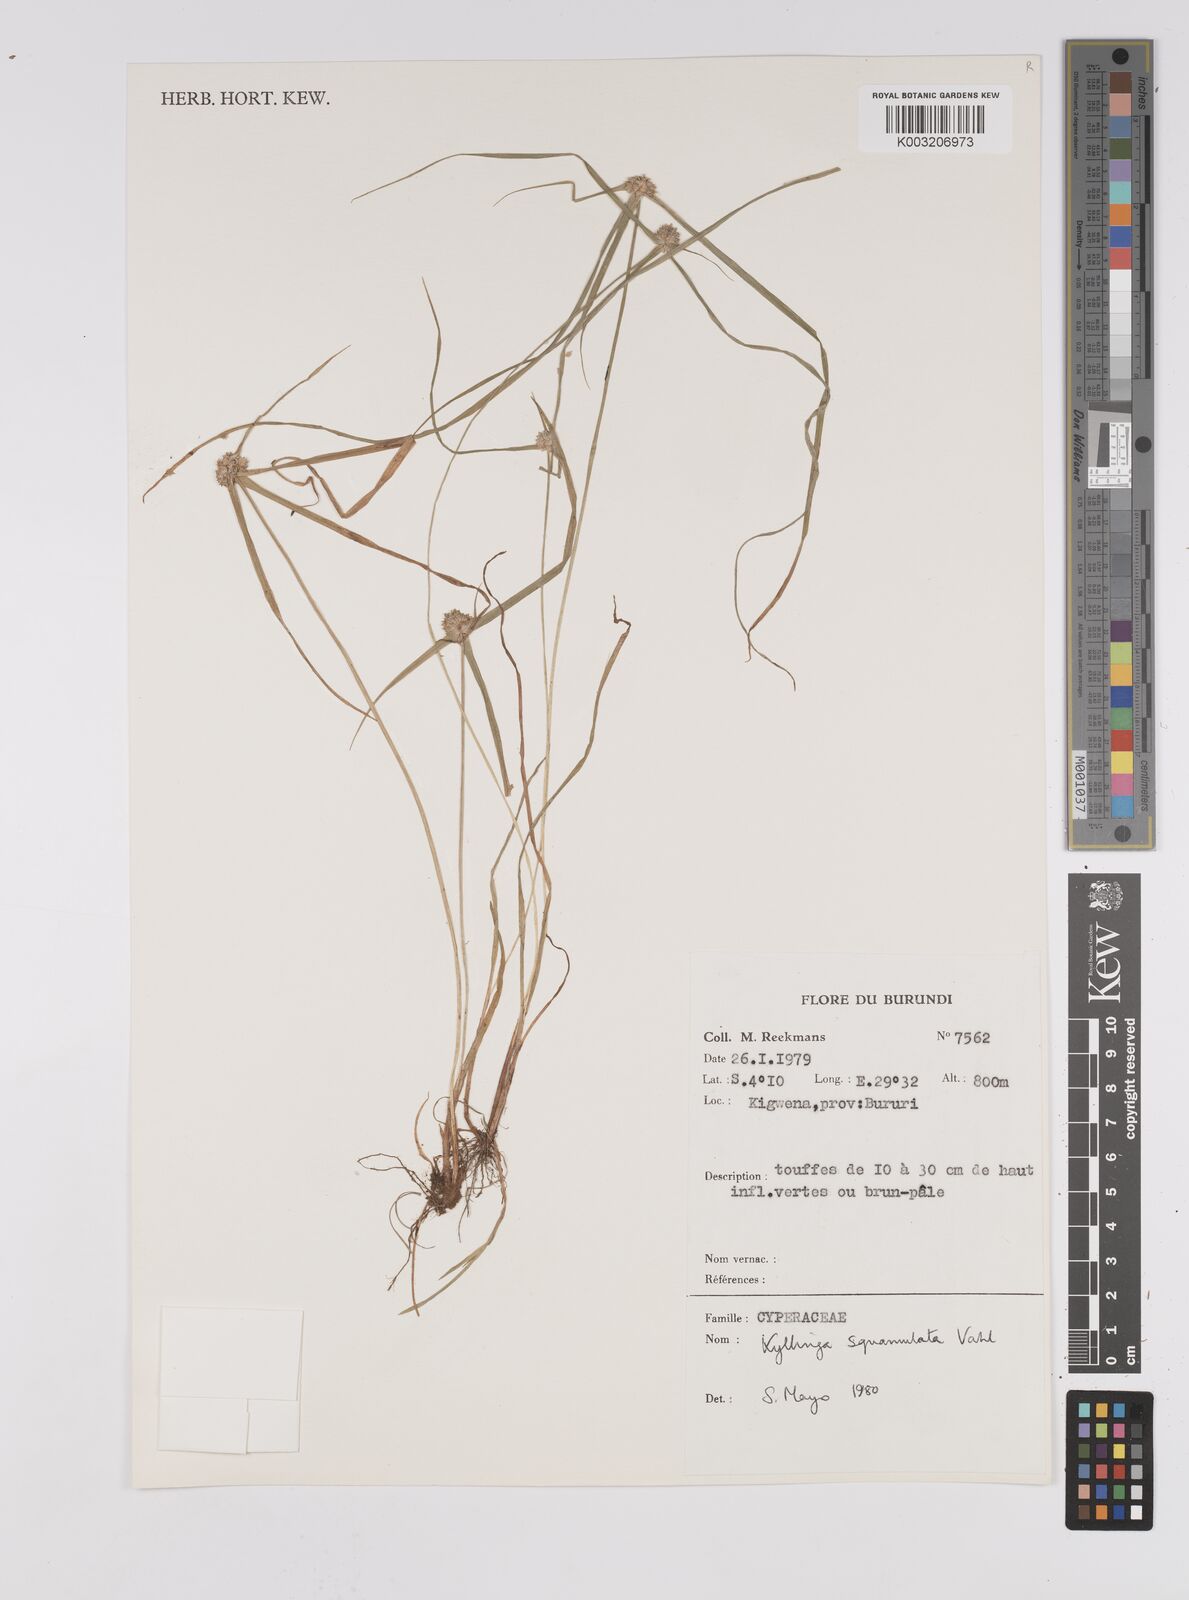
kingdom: Plantae
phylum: Tracheophyta
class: Liliopsida
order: Poales
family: Cyperaceae
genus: Cyperus
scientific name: Cyperus metzii
